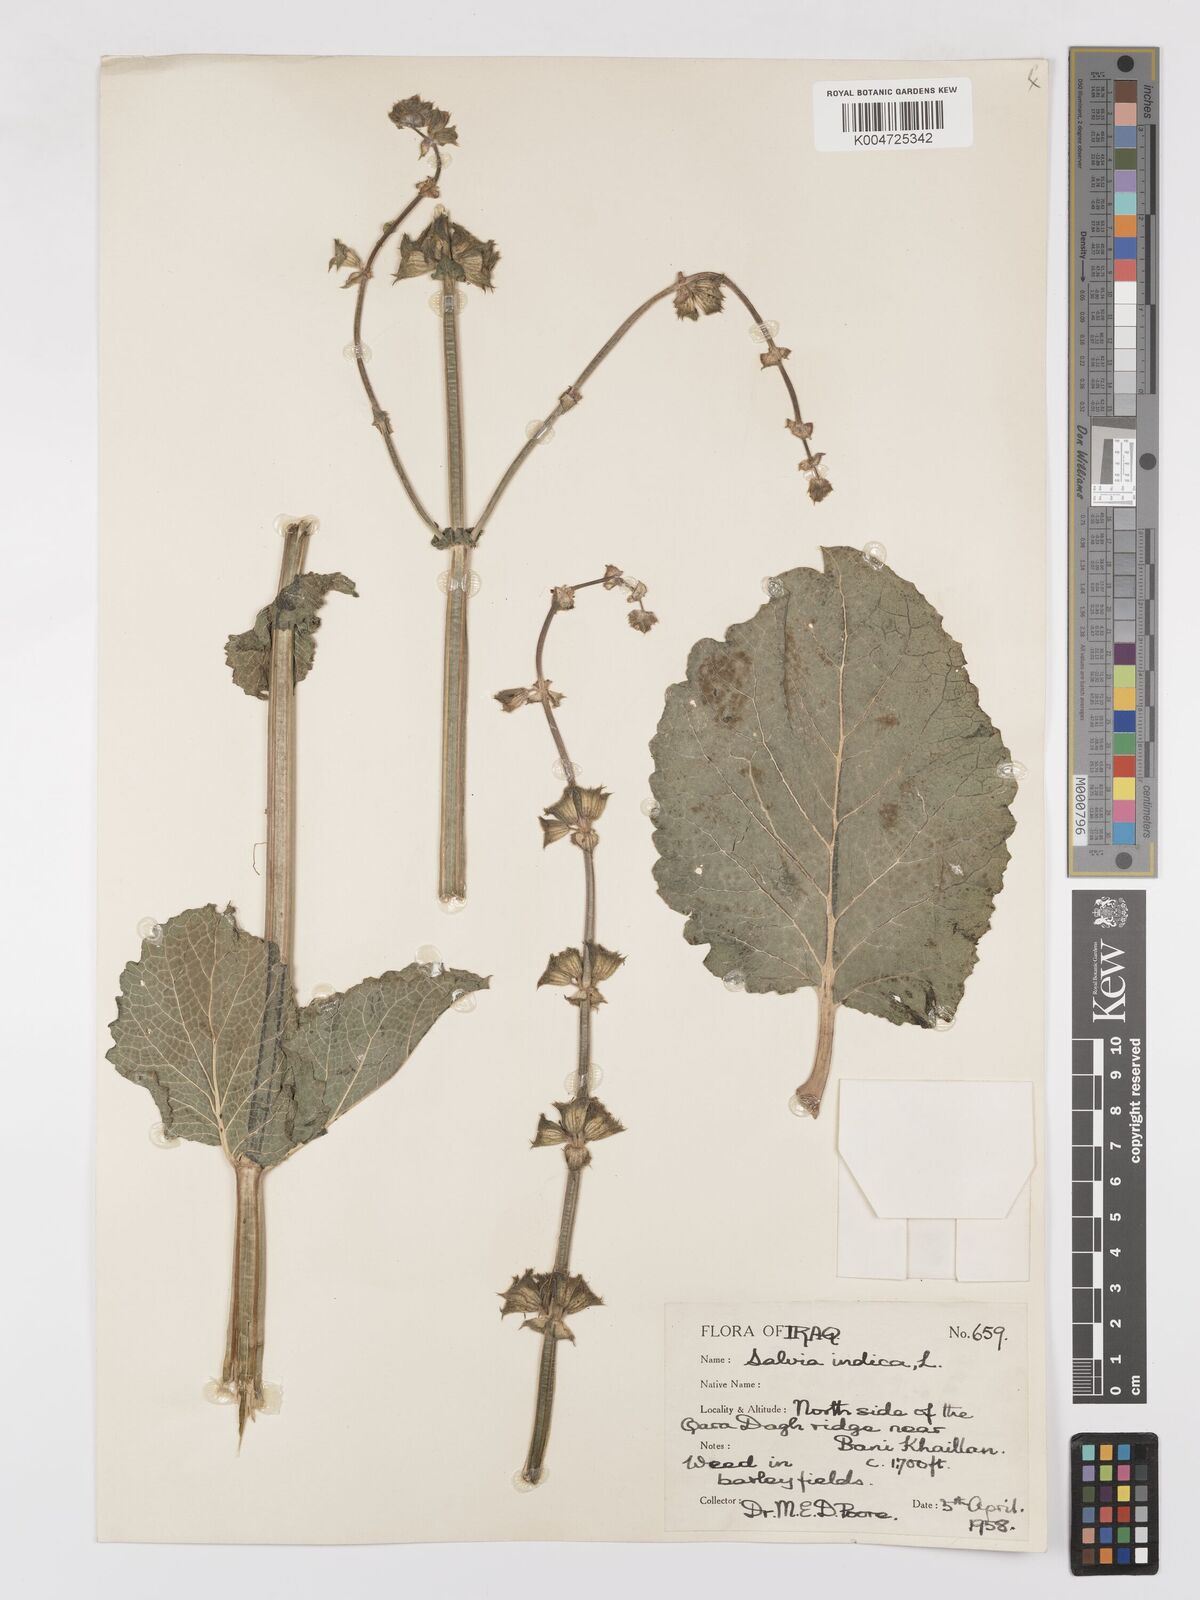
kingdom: Plantae
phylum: Tracheophyta
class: Magnoliopsida
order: Lamiales
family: Lamiaceae
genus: Salvia
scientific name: Salvia indica
